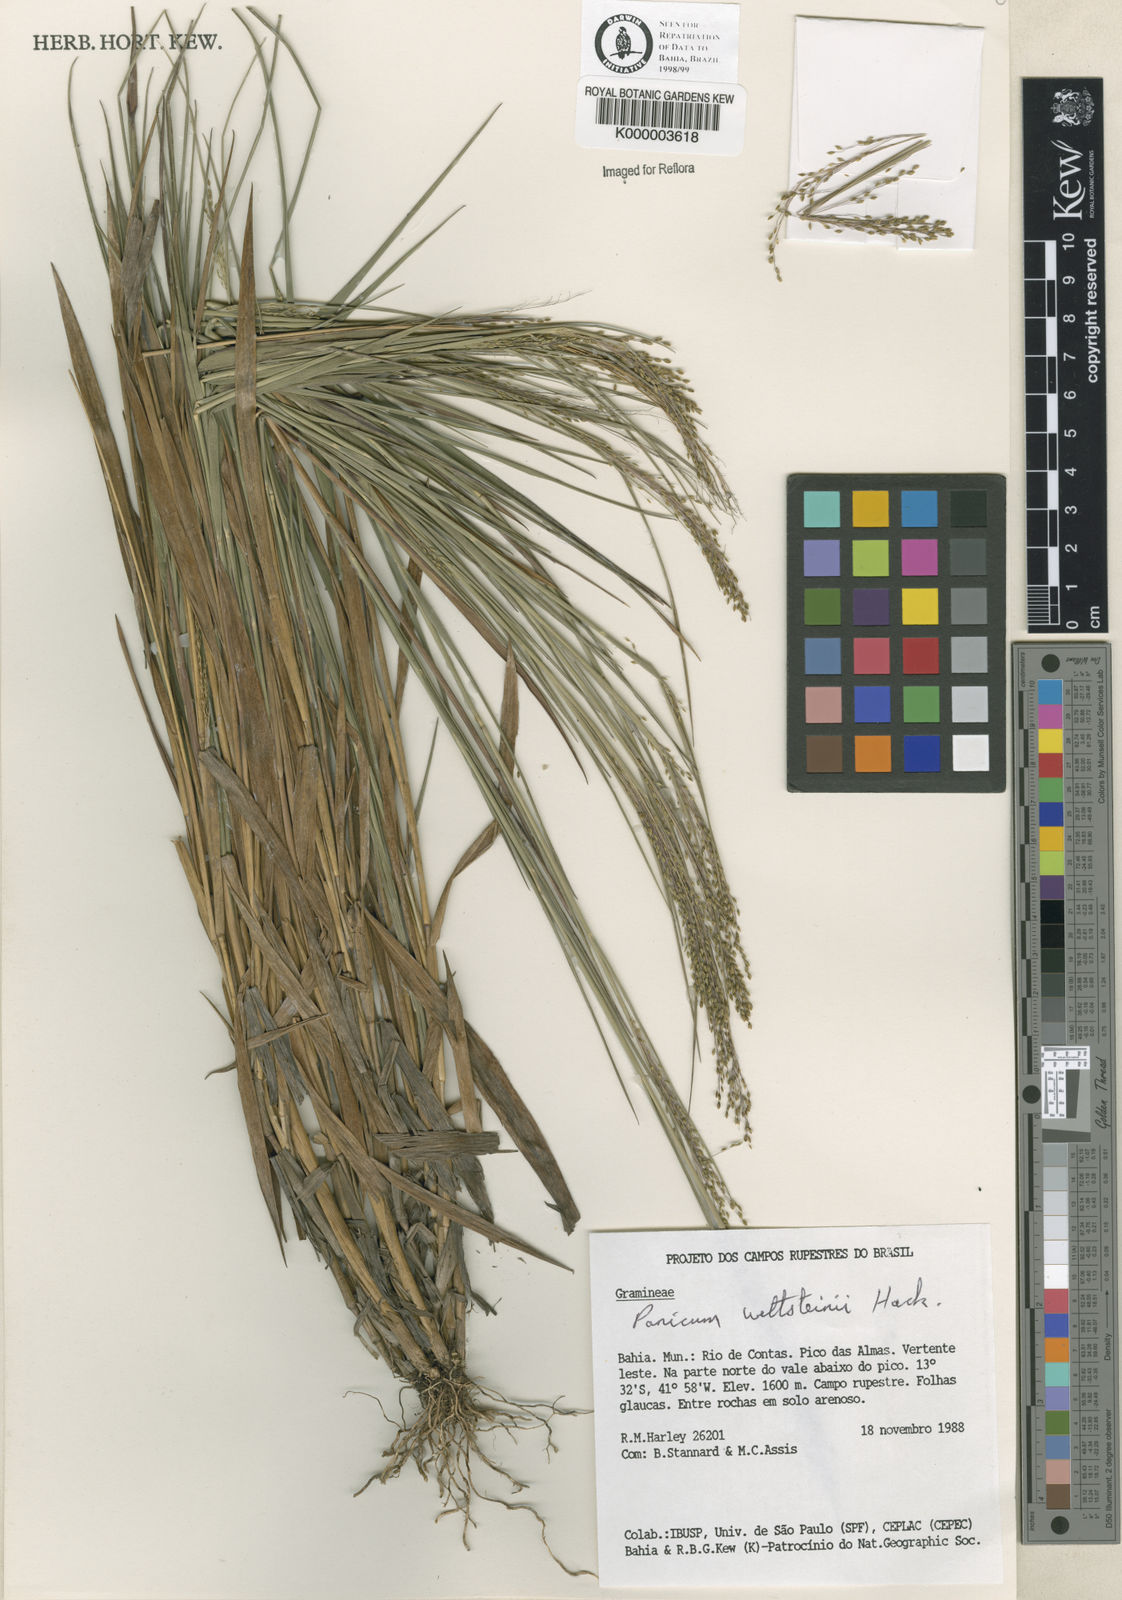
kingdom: Plantae
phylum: Tracheophyta
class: Liliopsida
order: Poales
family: Poaceae
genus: Trichanthecium
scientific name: Trichanthecium wettsteinii
